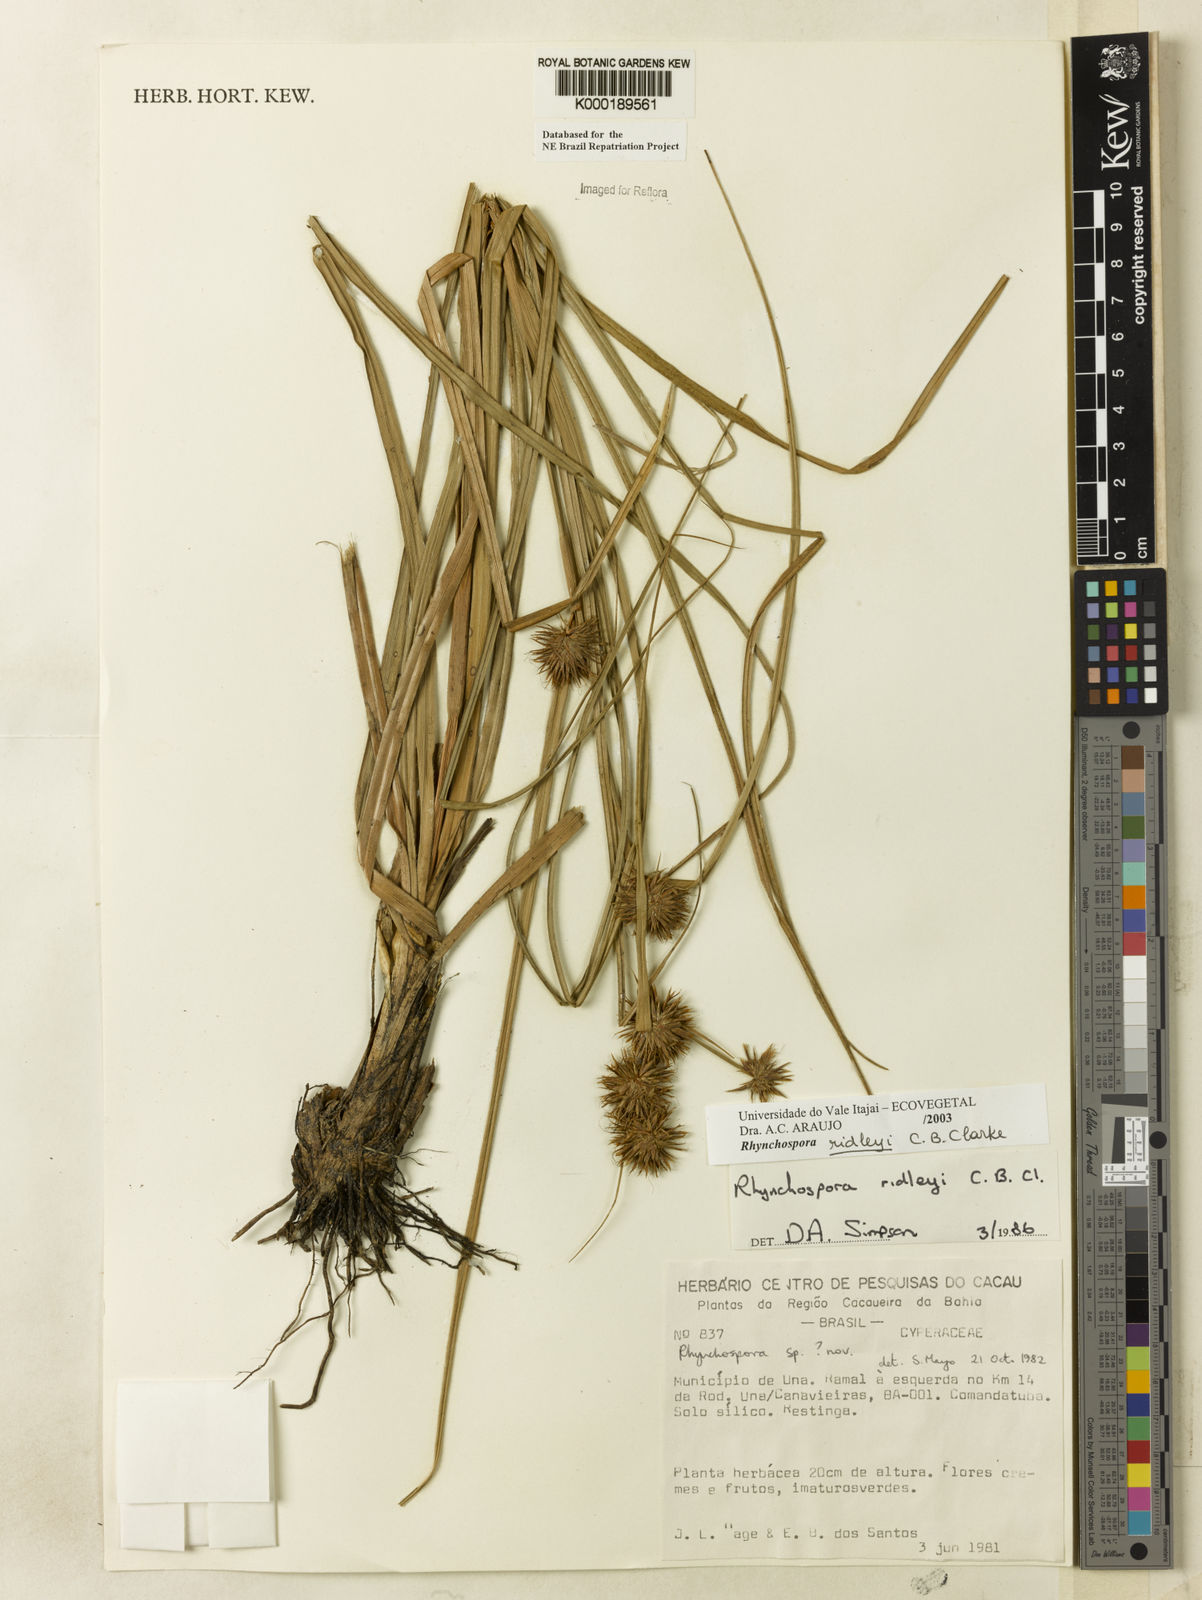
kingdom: Plantae
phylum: Tracheophyta
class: Liliopsida
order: Poales
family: Cyperaceae
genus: Rhynchospora
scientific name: Rhynchospora ridleyi
